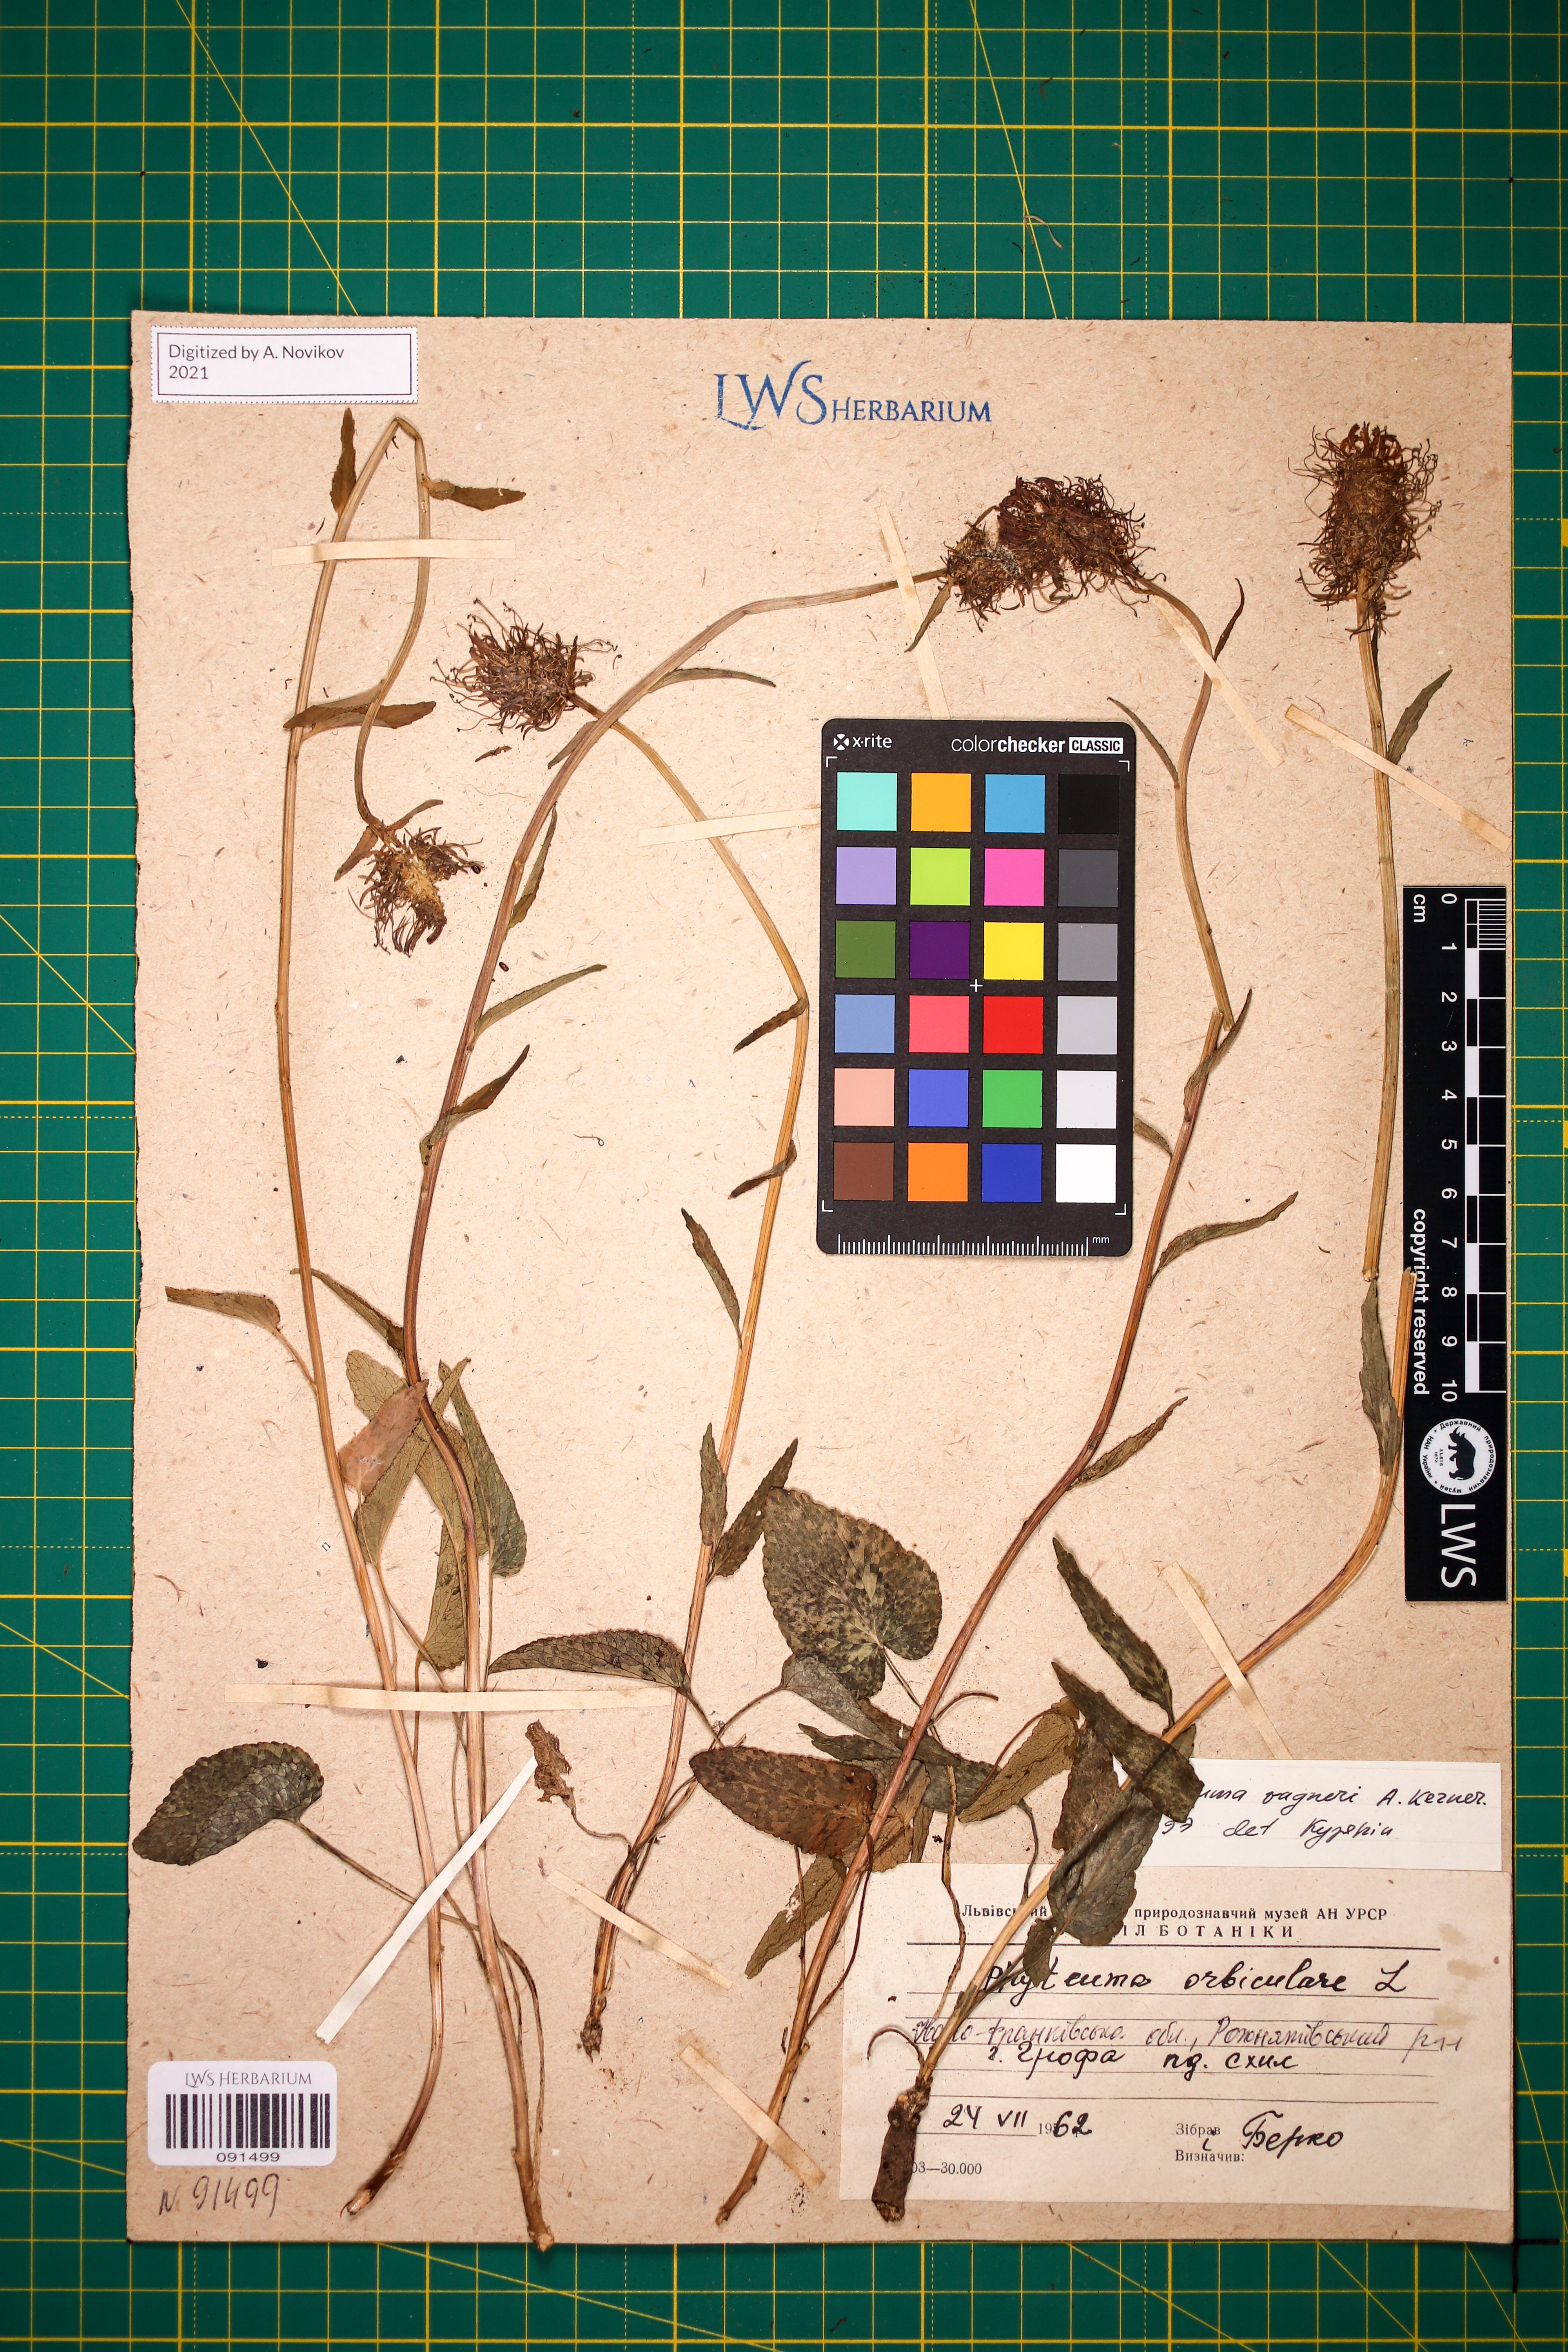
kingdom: Plantae
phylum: Tracheophyta
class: Magnoliopsida
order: Asterales
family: Campanulaceae
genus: Phyteuma
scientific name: Phyteuma vagneri
